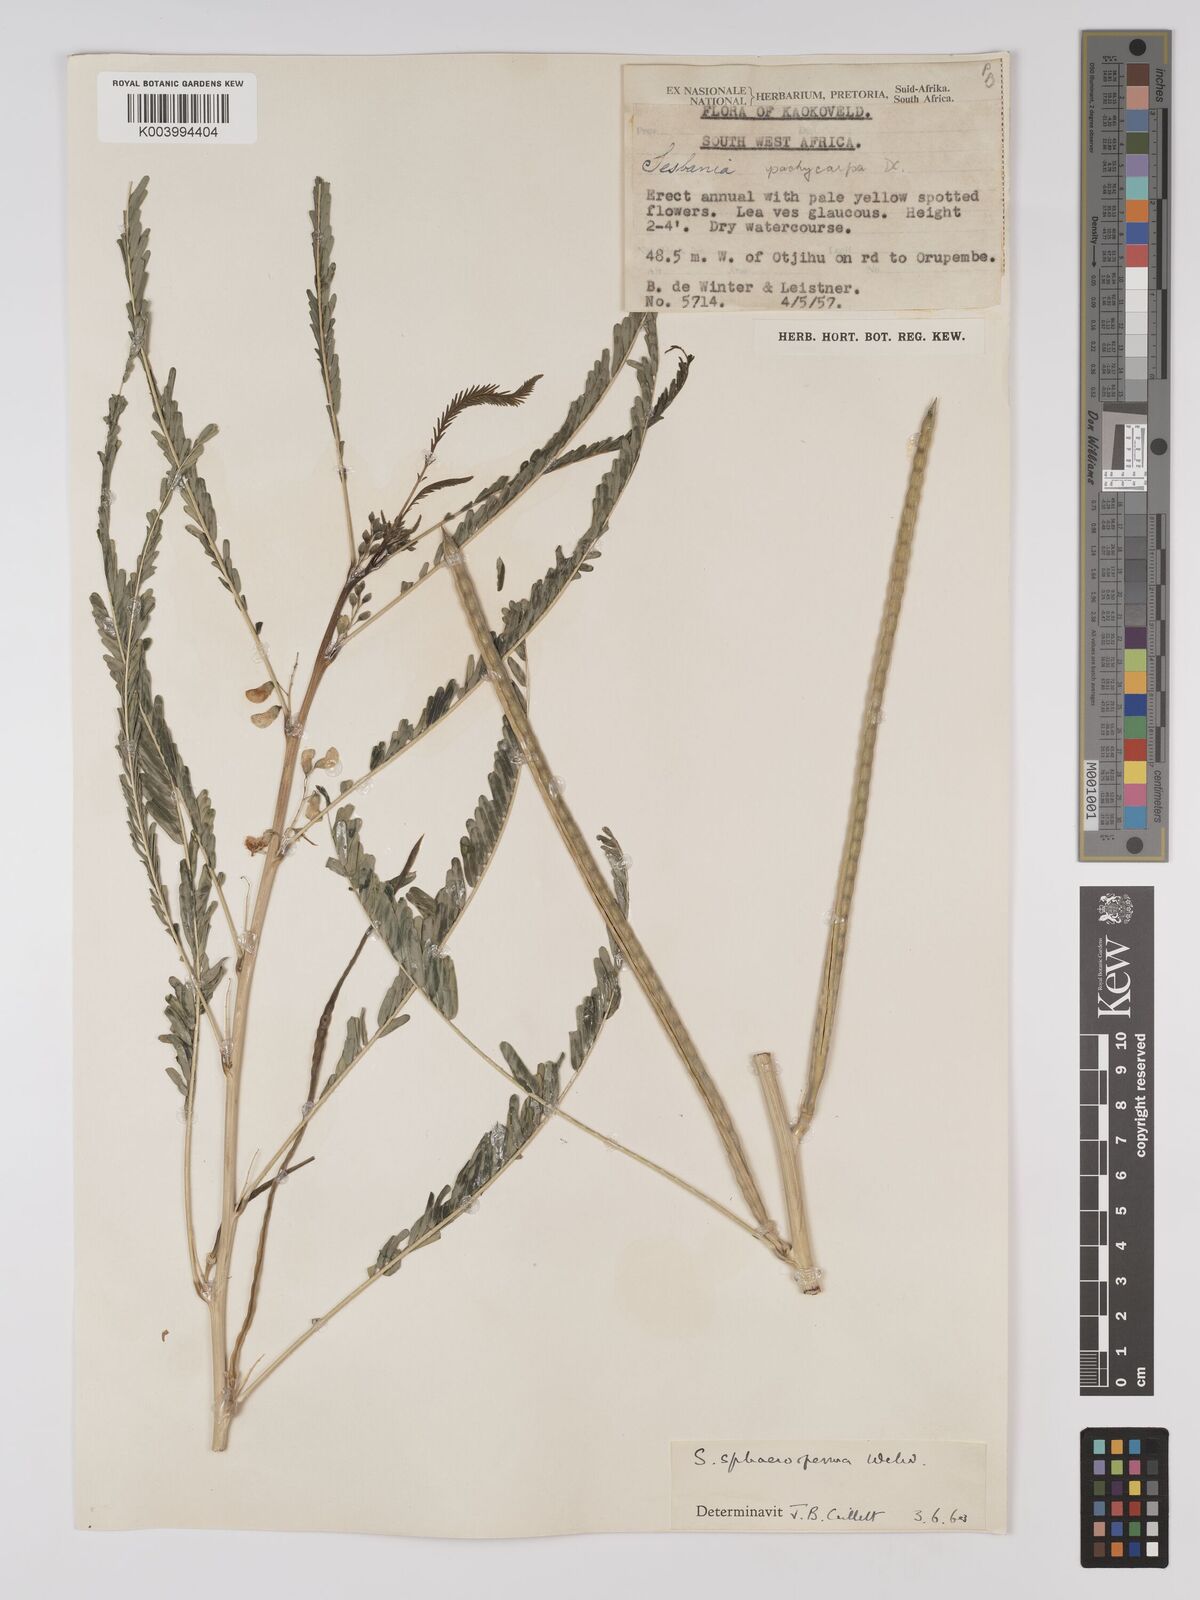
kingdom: Plantae
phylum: Tracheophyta
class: Magnoliopsida
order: Fabales
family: Fabaceae
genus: Sesbania
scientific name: Sesbania sphaerocarpa
